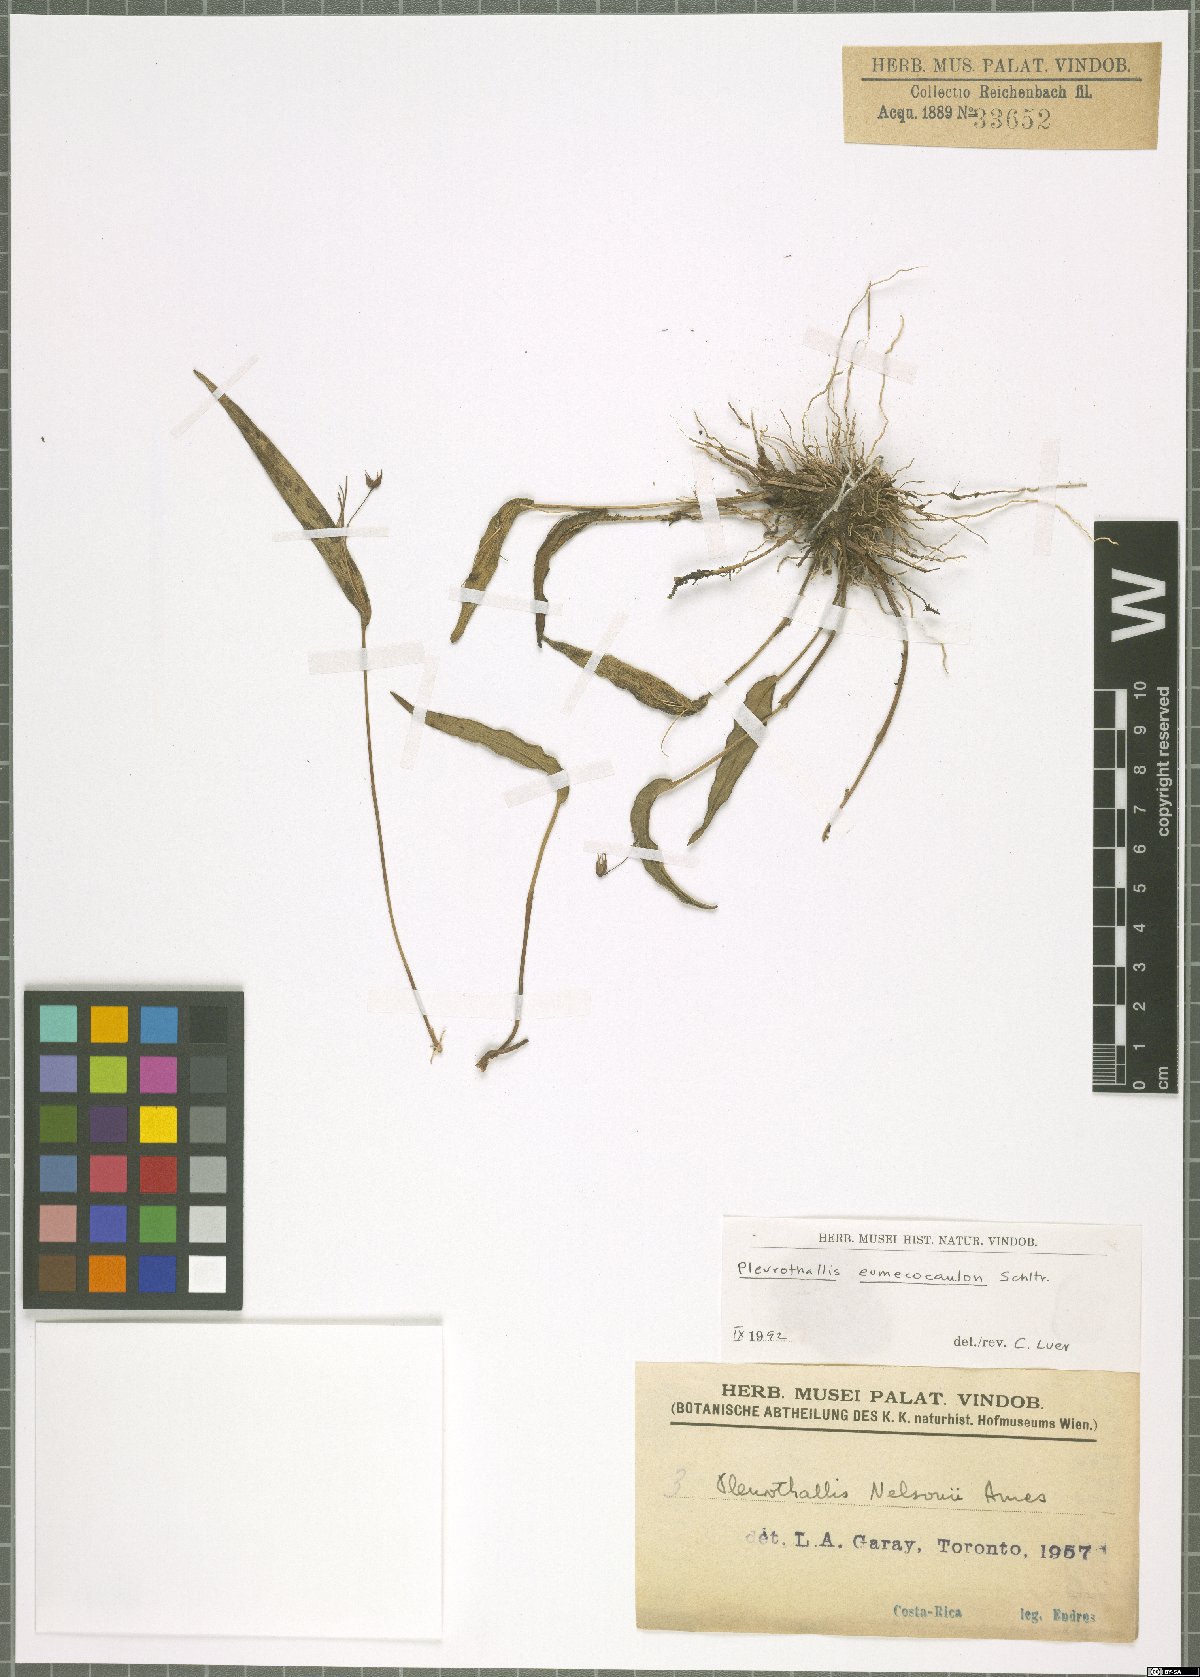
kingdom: Plantae
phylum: Tracheophyta
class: Liliopsida
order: Asparagales
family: Orchidaceae
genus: Pleurothallis
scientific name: Pleurothallis eumecocaulon
